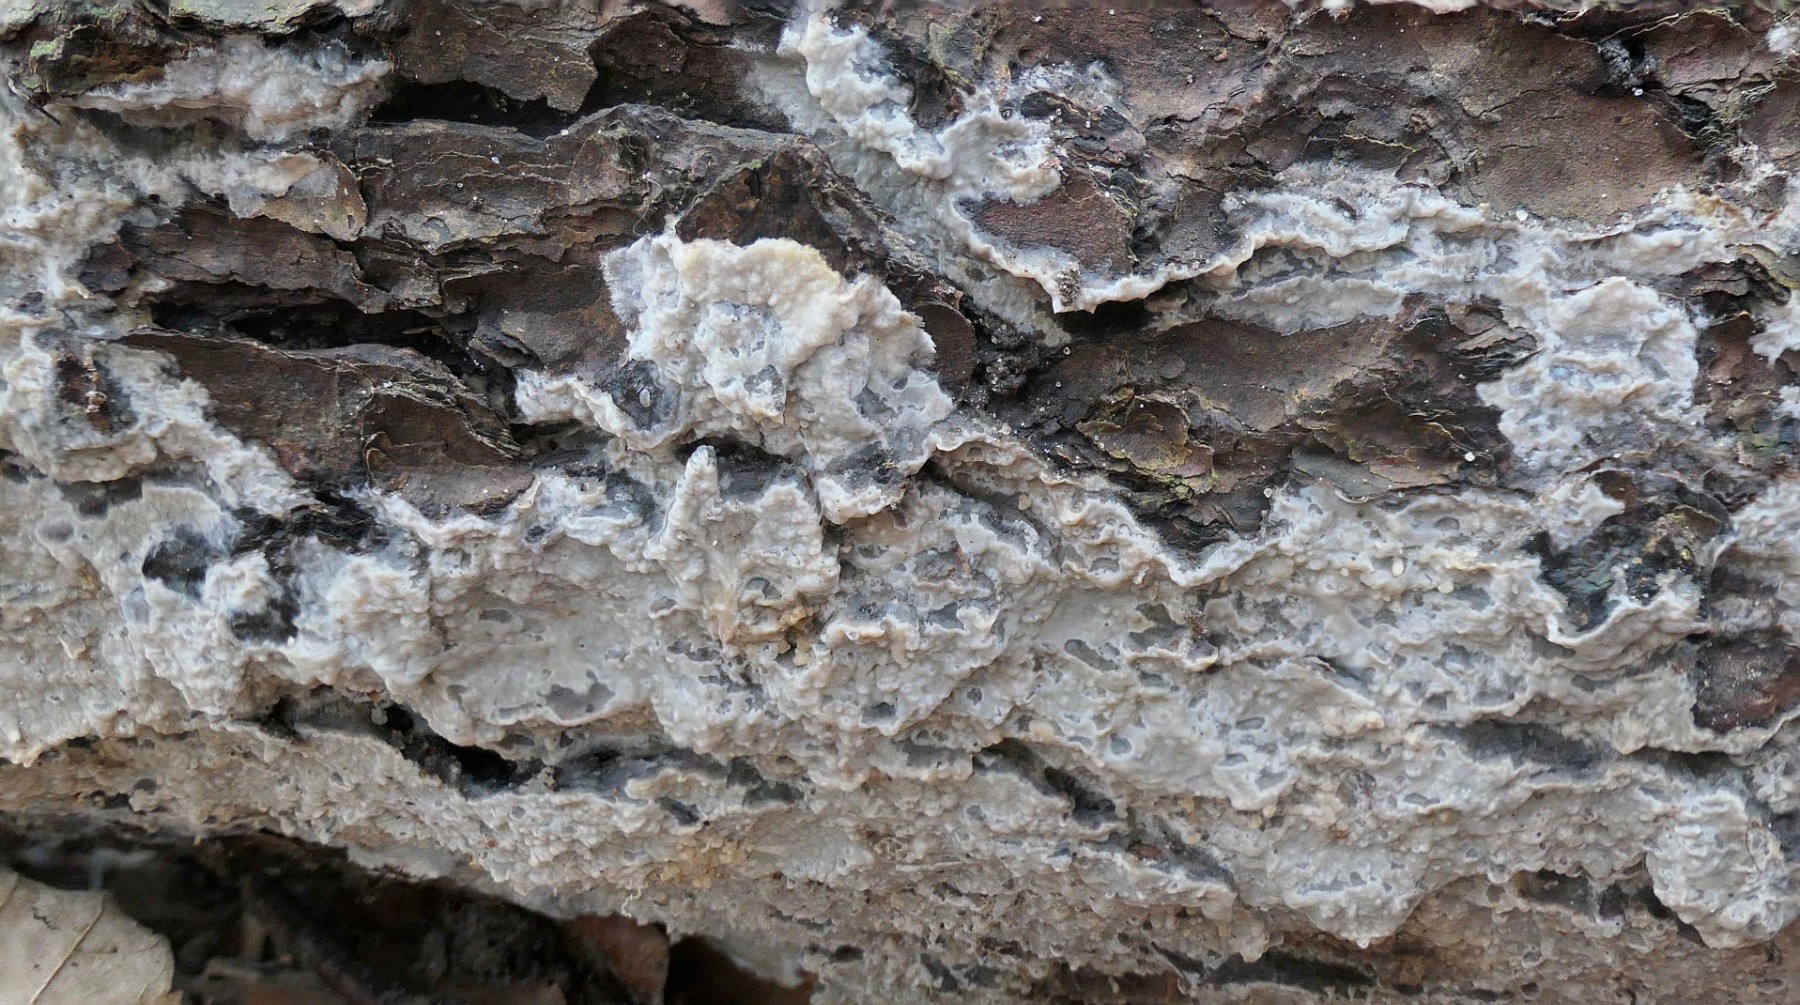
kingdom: Fungi
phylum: Basidiomycota
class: Agaricomycetes
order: Polyporales
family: Phanerochaetaceae
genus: Phlebiopsis
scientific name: Phlebiopsis gigantea
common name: kæmpebarksvamp
